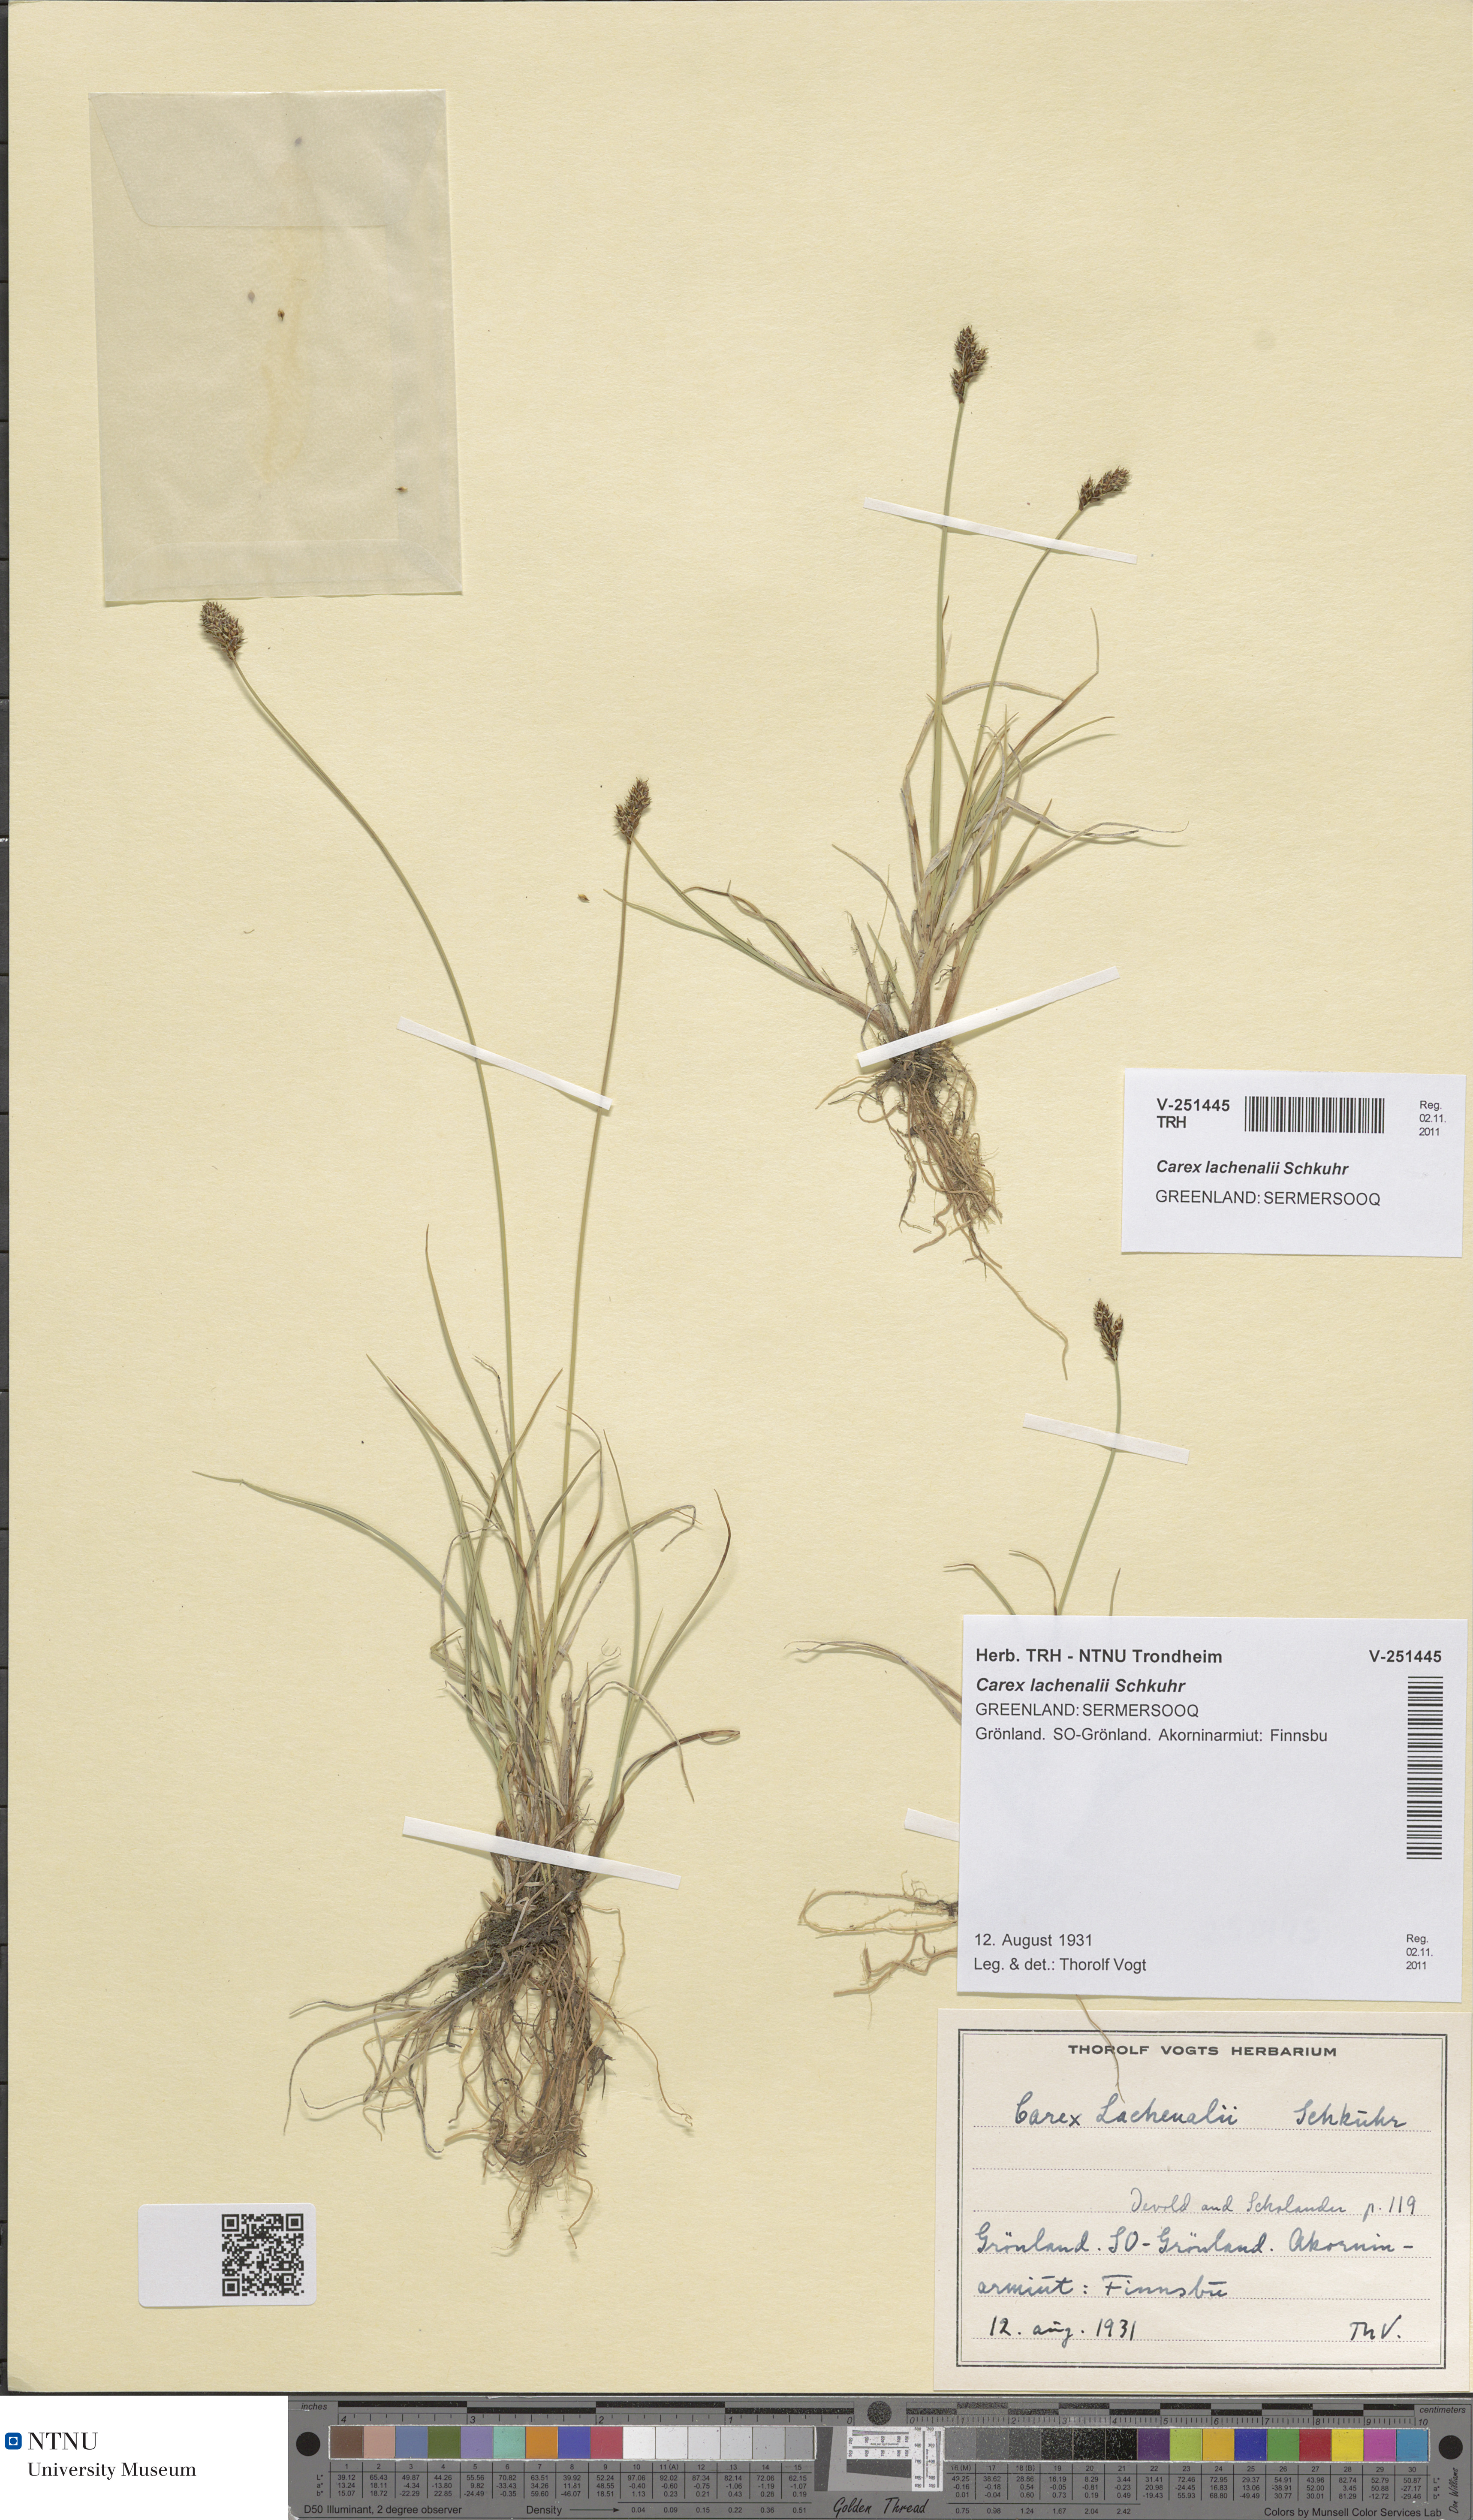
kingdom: Plantae
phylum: Tracheophyta
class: Liliopsida
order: Poales
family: Cyperaceae
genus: Carex
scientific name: Carex lachenalii
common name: Hare's-foot sedge
